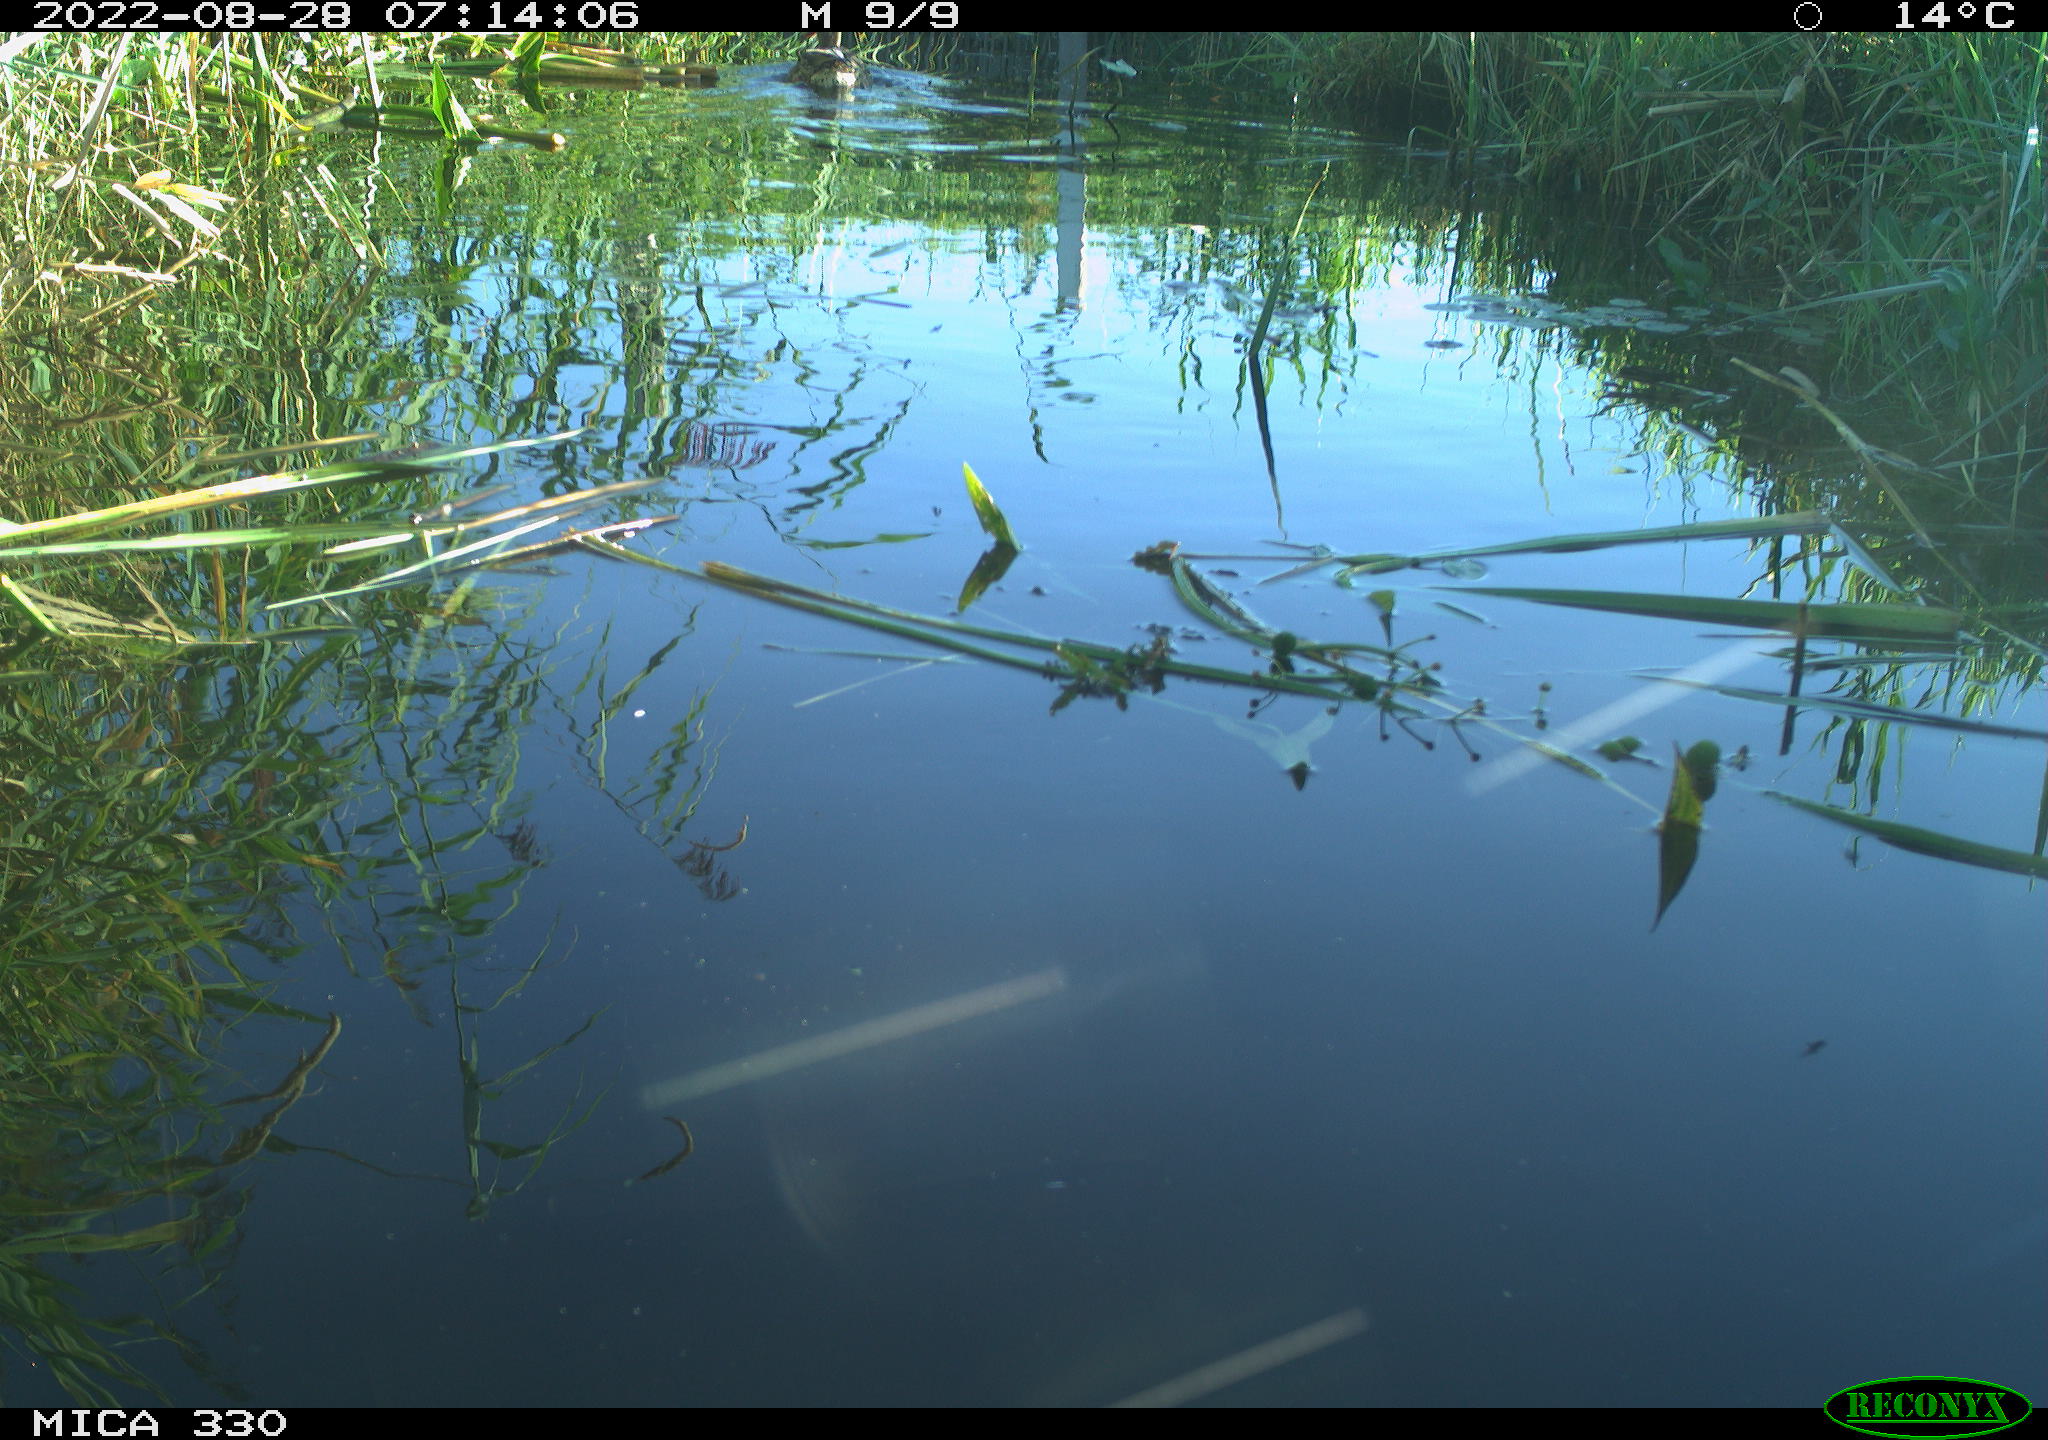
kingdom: Animalia
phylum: Chordata
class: Aves
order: Anseriformes
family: Anatidae
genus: Mareca
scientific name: Mareca strepera
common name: Gadwall
